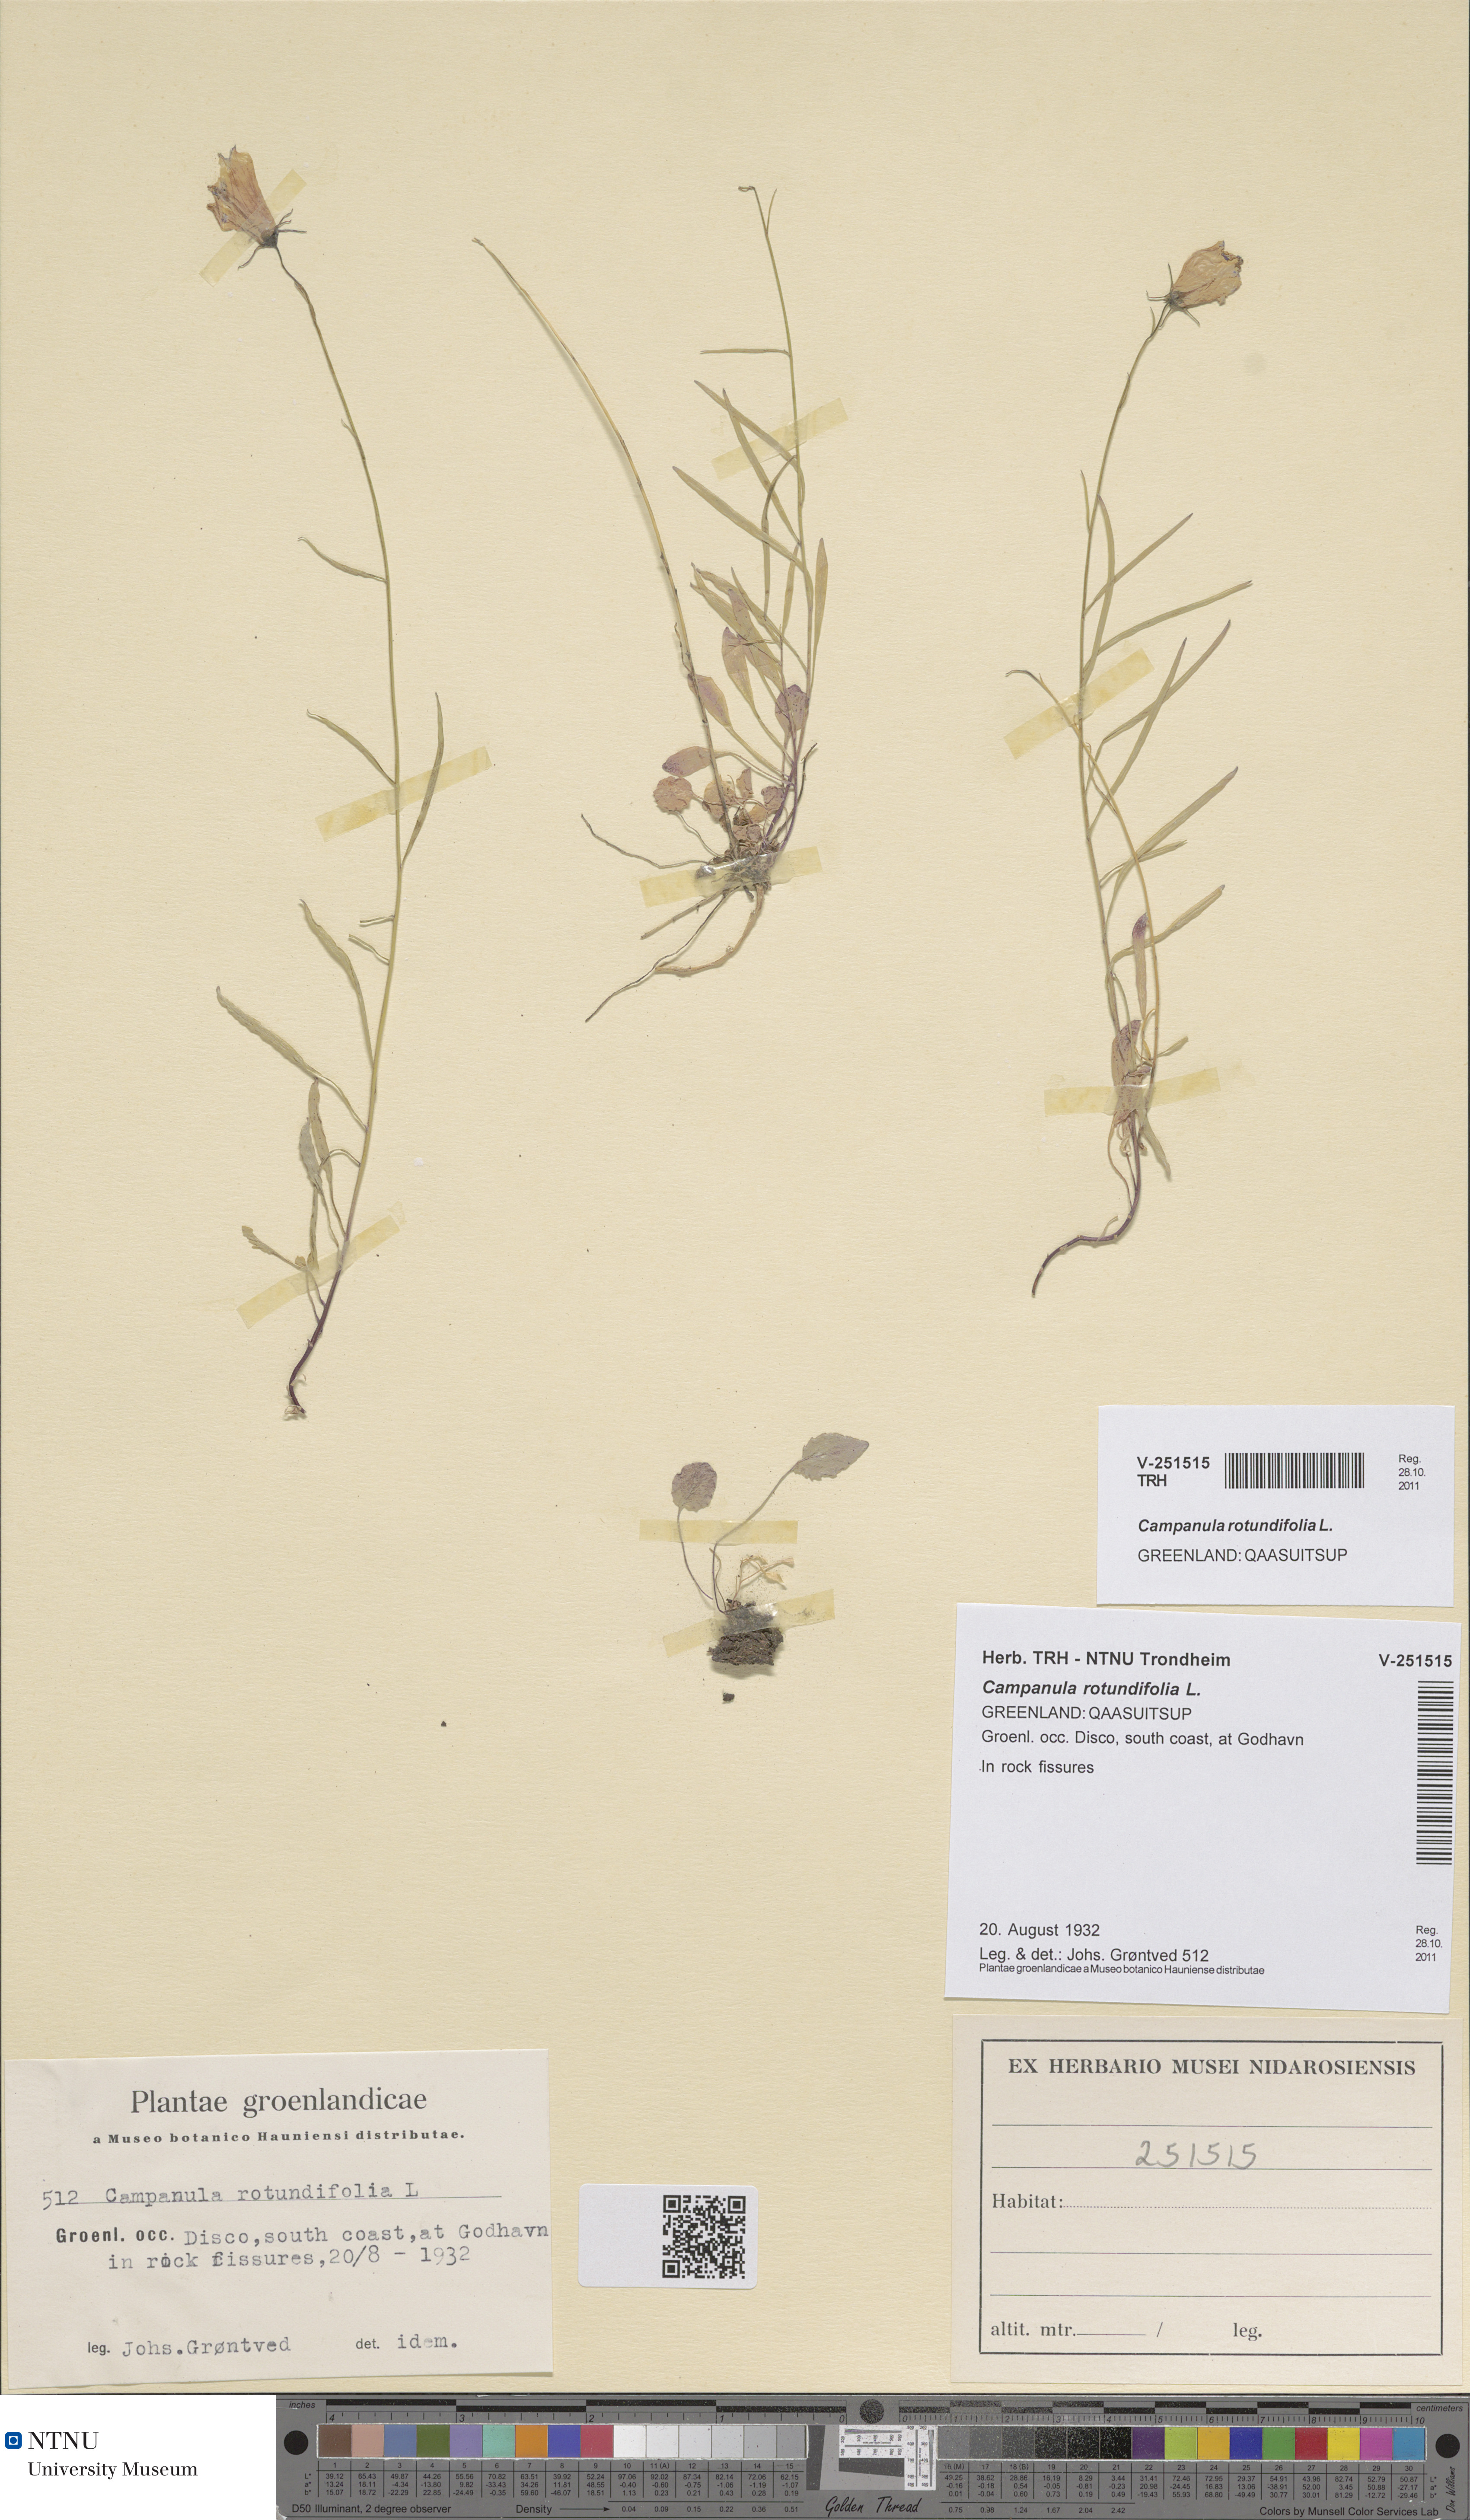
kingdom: Plantae
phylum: Tracheophyta
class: Magnoliopsida
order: Asterales
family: Campanulaceae
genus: Campanula
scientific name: Campanula rotundifolia
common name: Harebell
